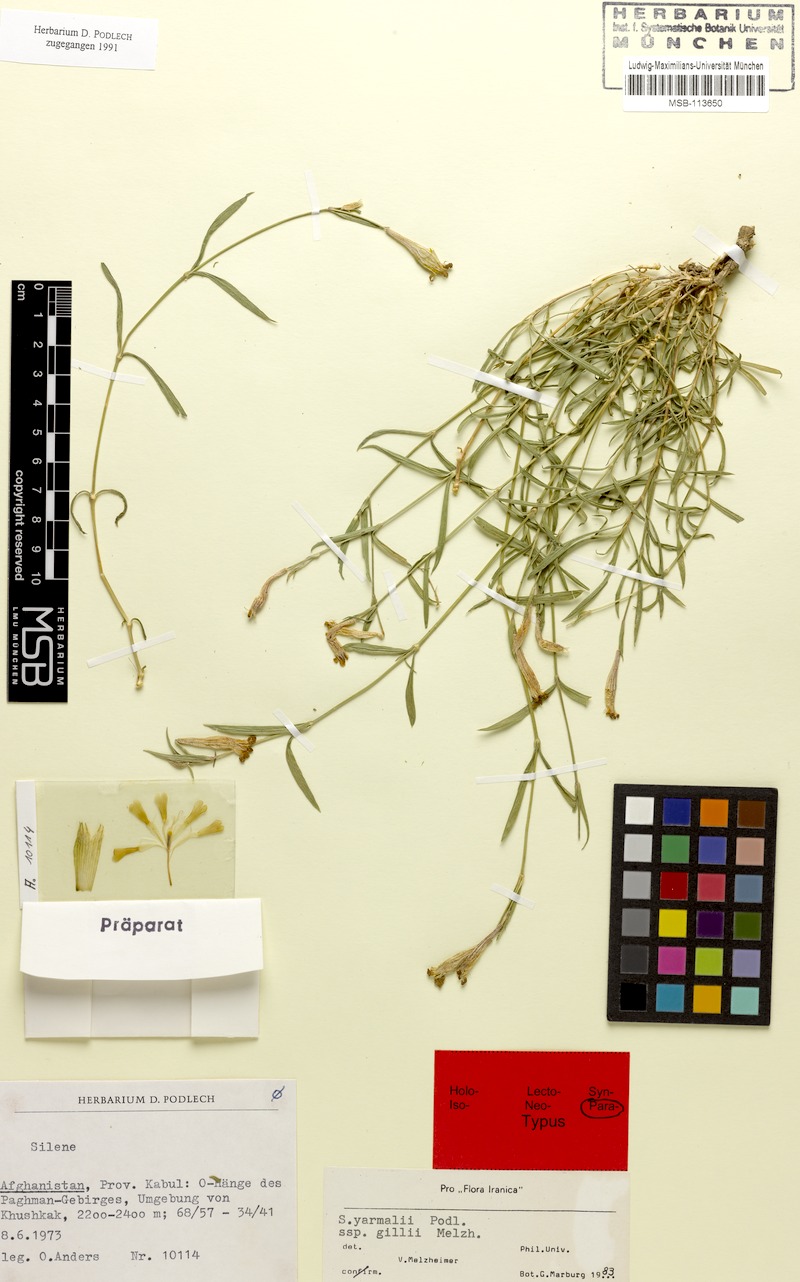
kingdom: Plantae
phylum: Tracheophyta
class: Magnoliopsida
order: Caryophyllales
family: Caryophyllaceae
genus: Silene
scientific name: Silene yarmalii
